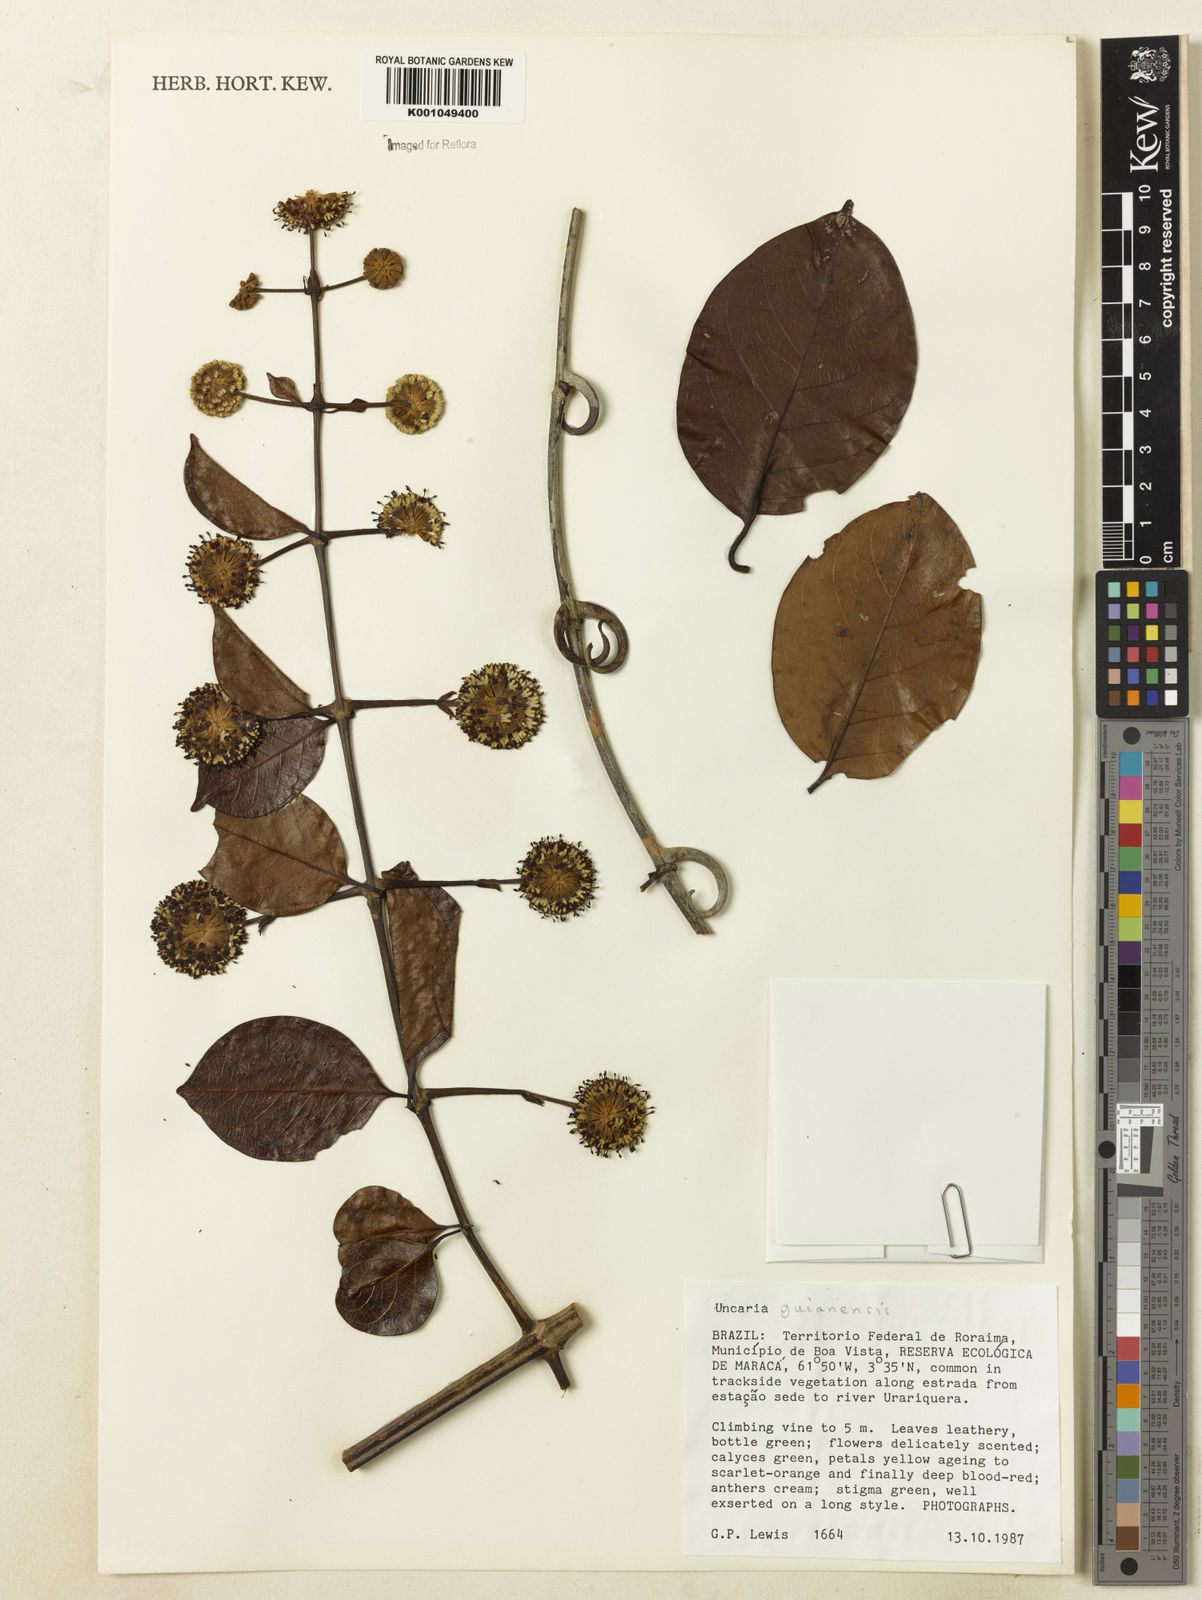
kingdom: Plantae
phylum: Tracheophyta
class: Magnoliopsida
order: Gentianales
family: Rubiaceae
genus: Uncaria
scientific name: Uncaria guianensis
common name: Cat's-claw
